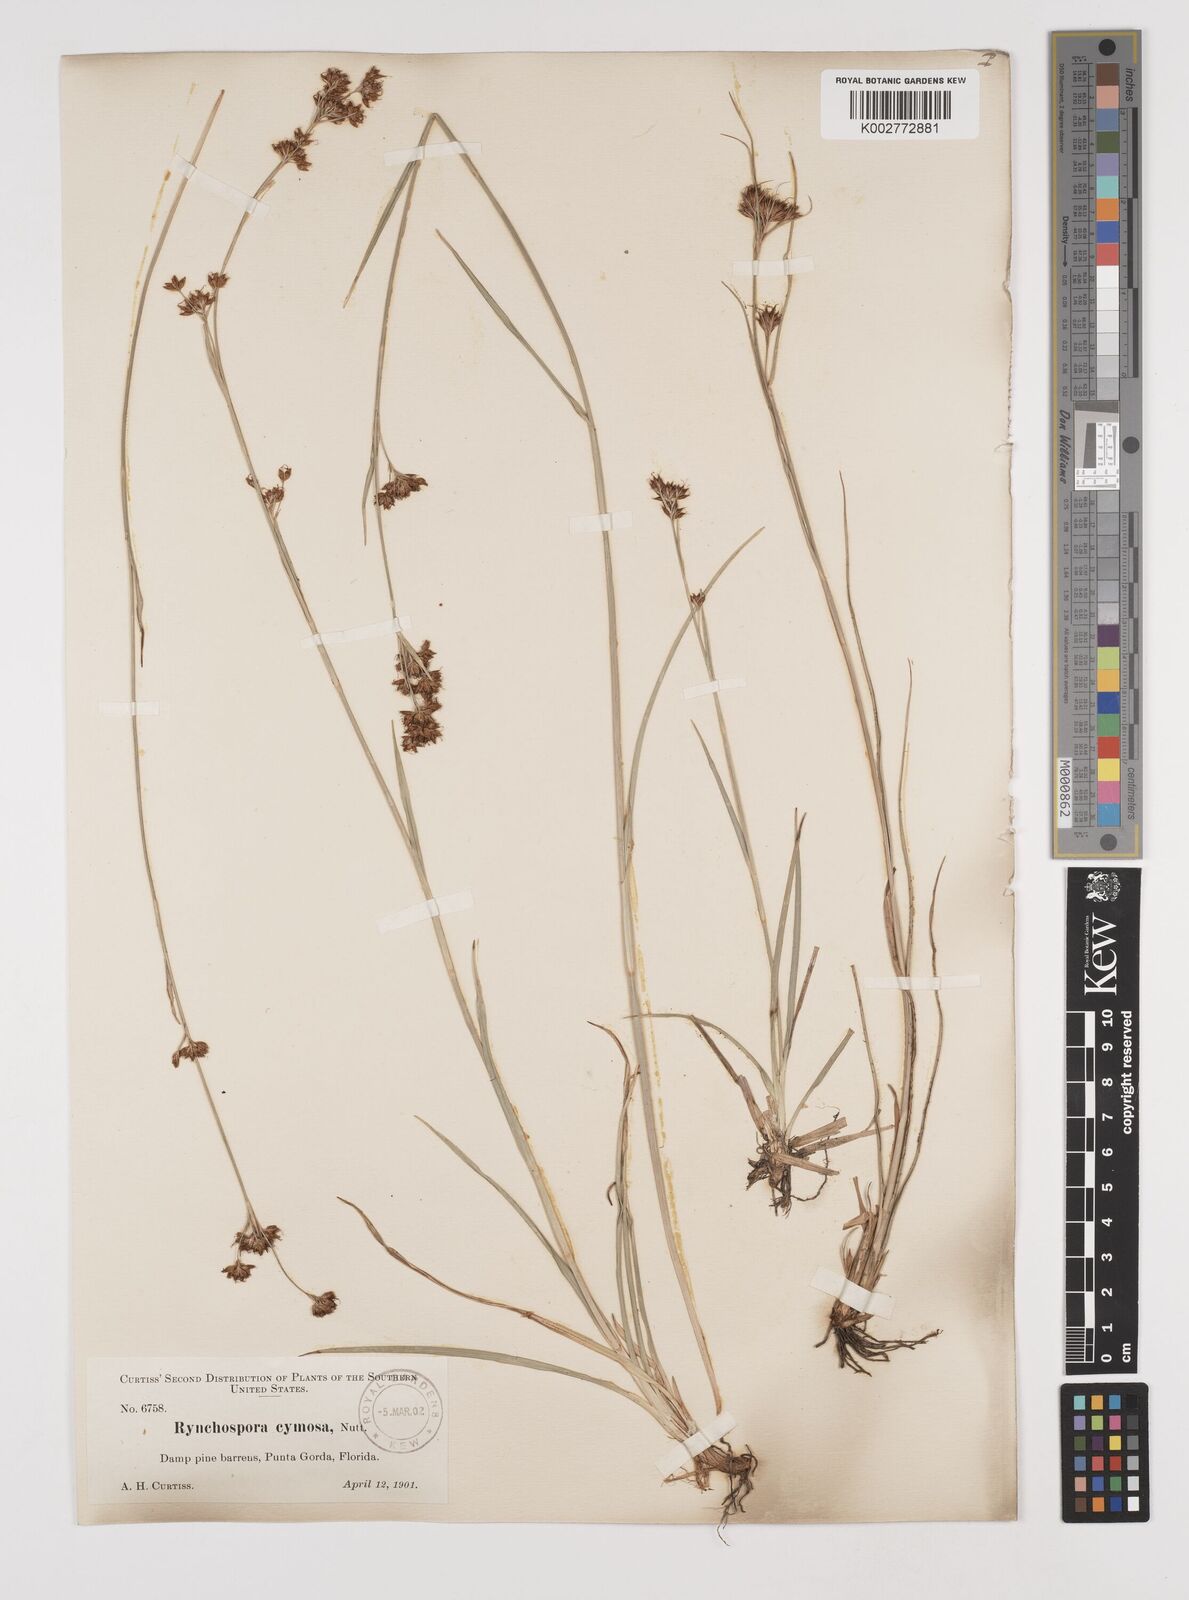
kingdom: Plantae
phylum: Tracheophyta
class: Liliopsida
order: Poales
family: Cyperaceae
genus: Scirpus
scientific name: Scirpus polyphyllus
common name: Leafy bulrush
